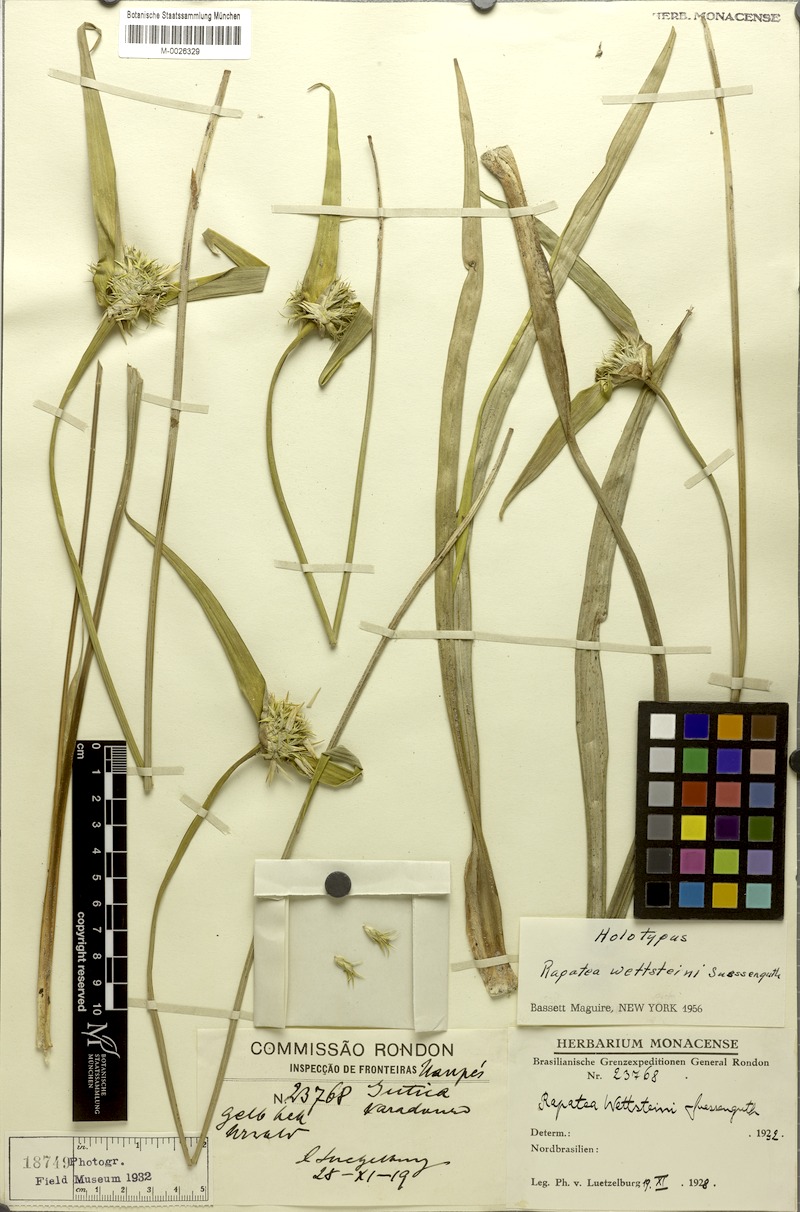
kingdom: Plantae
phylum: Tracheophyta
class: Liliopsida
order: Poales
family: Rapateaceae
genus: Rapatea
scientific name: Rapatea linearis
